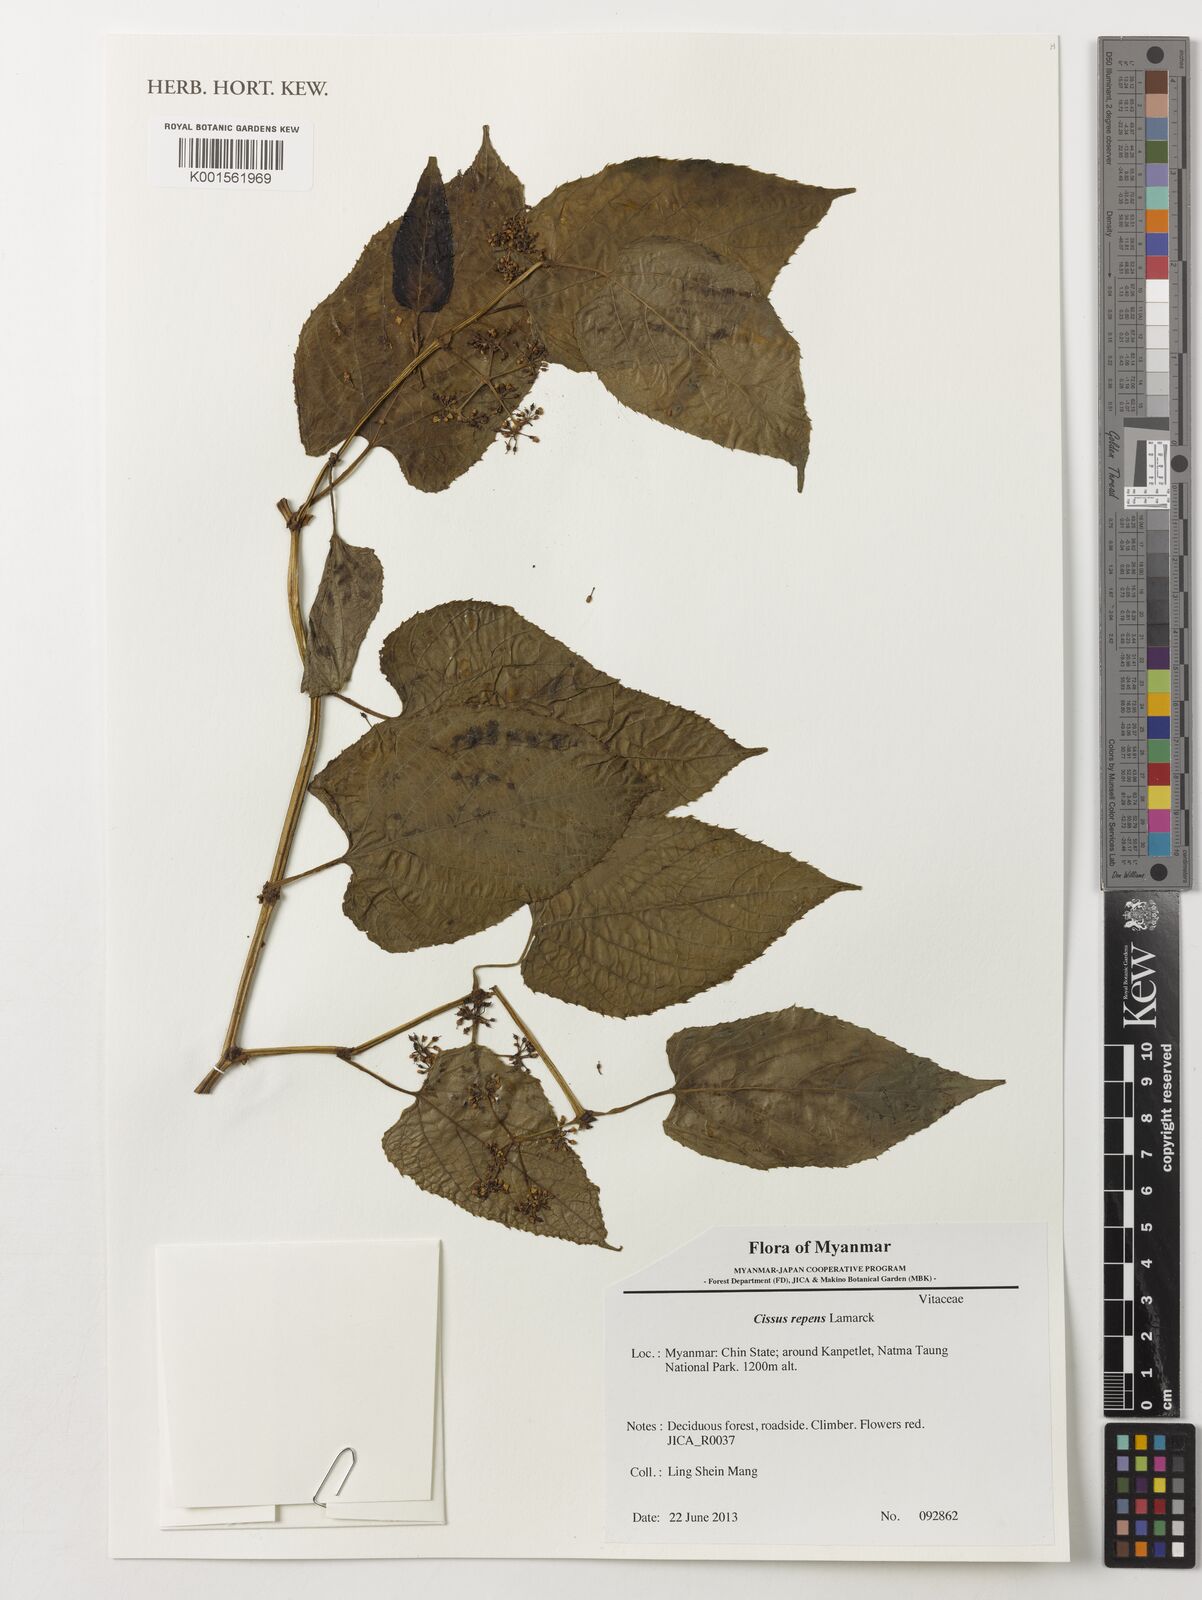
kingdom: Plantae
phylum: Tracheophyta
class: Magnoliopsida
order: Vitales
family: Vitaceae
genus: Cissus
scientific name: Cissus repens
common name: Cissus
